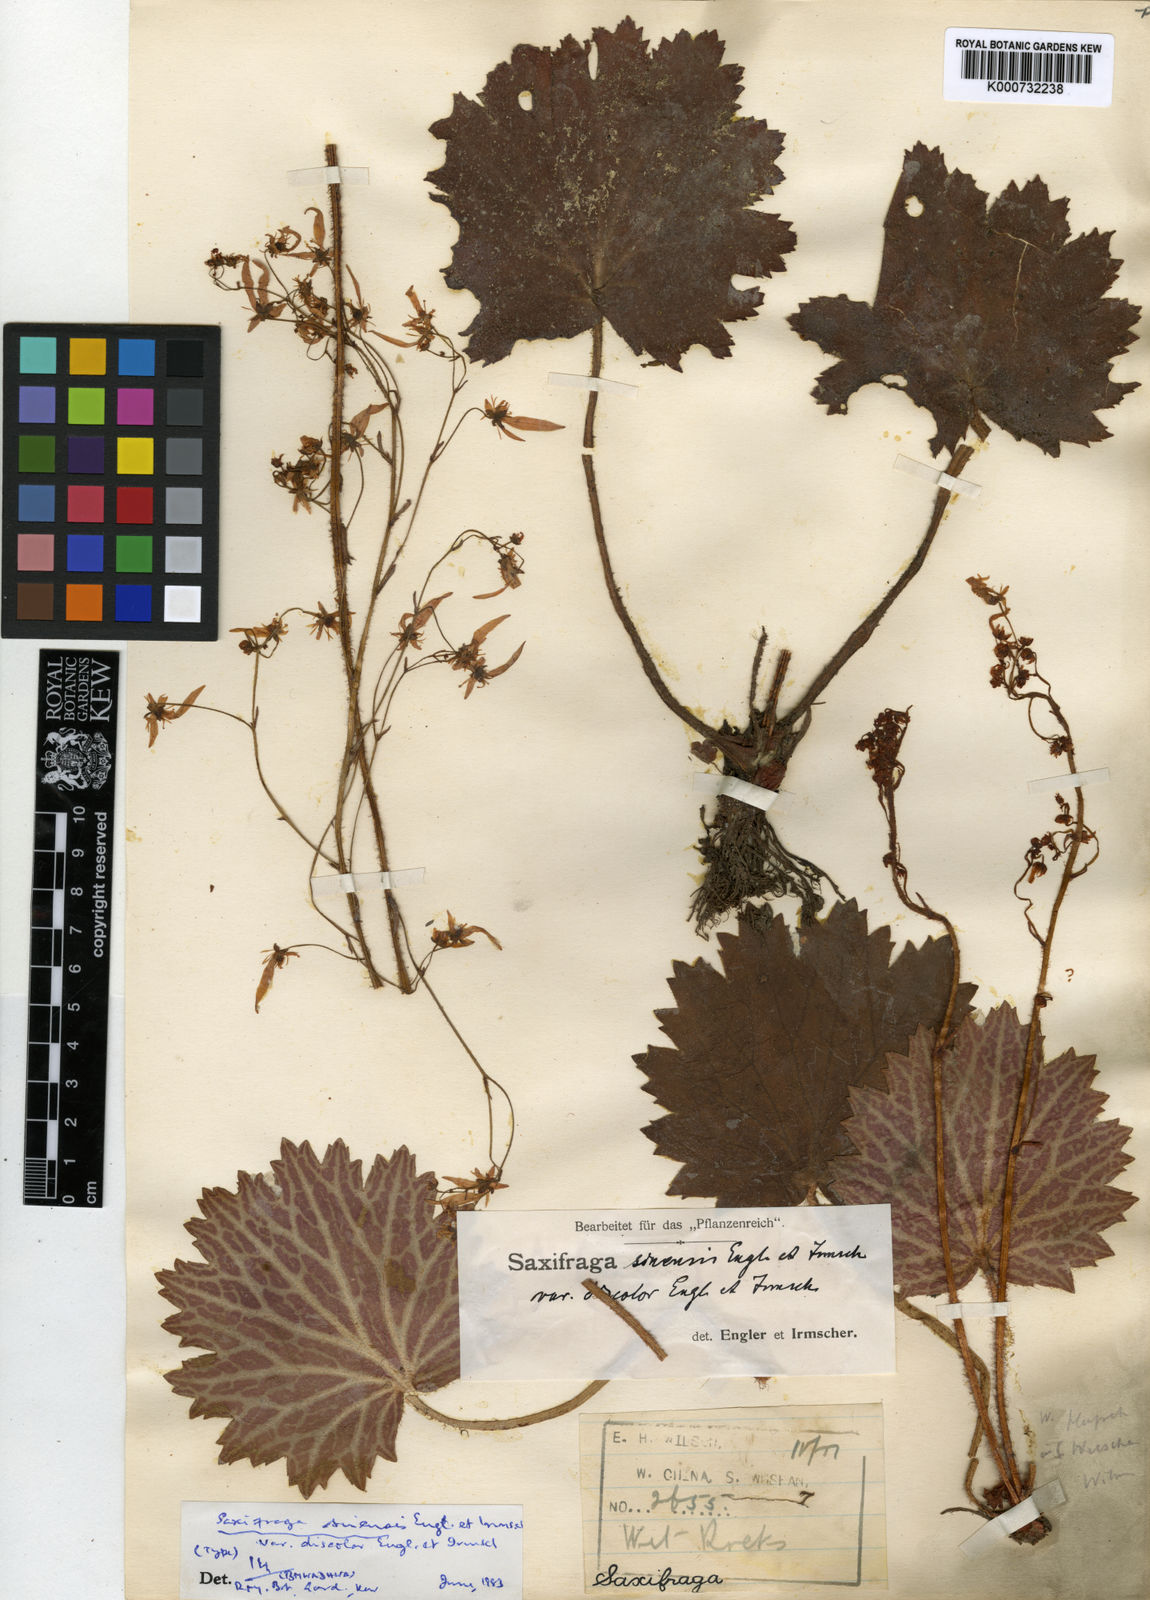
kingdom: Plantae
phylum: Tracheophyta
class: Magnoliopsida
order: Saxifragales
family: Saxifragaceae
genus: Saxifraga
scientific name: Saxifraga rufescens
